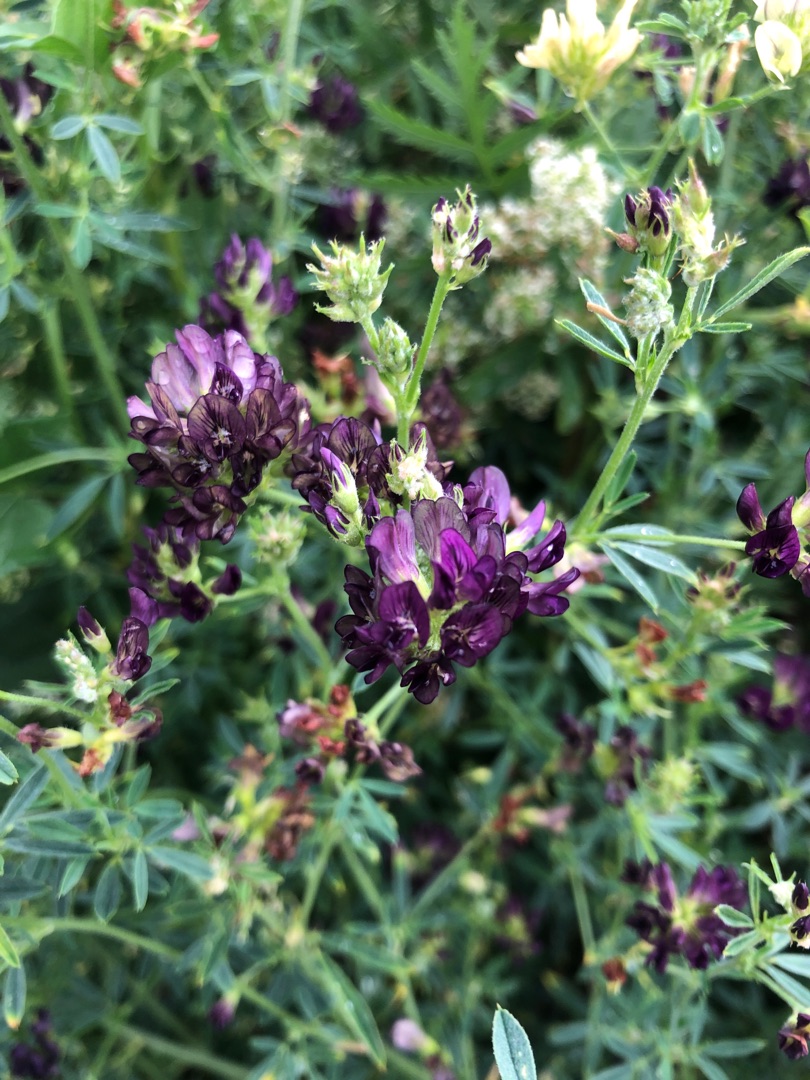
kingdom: Plantae
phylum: Tracheophyta
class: Magnoliopsida
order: Fabales
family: Fabaceae
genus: Medicago
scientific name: Medicago sativa
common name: Lucerne
